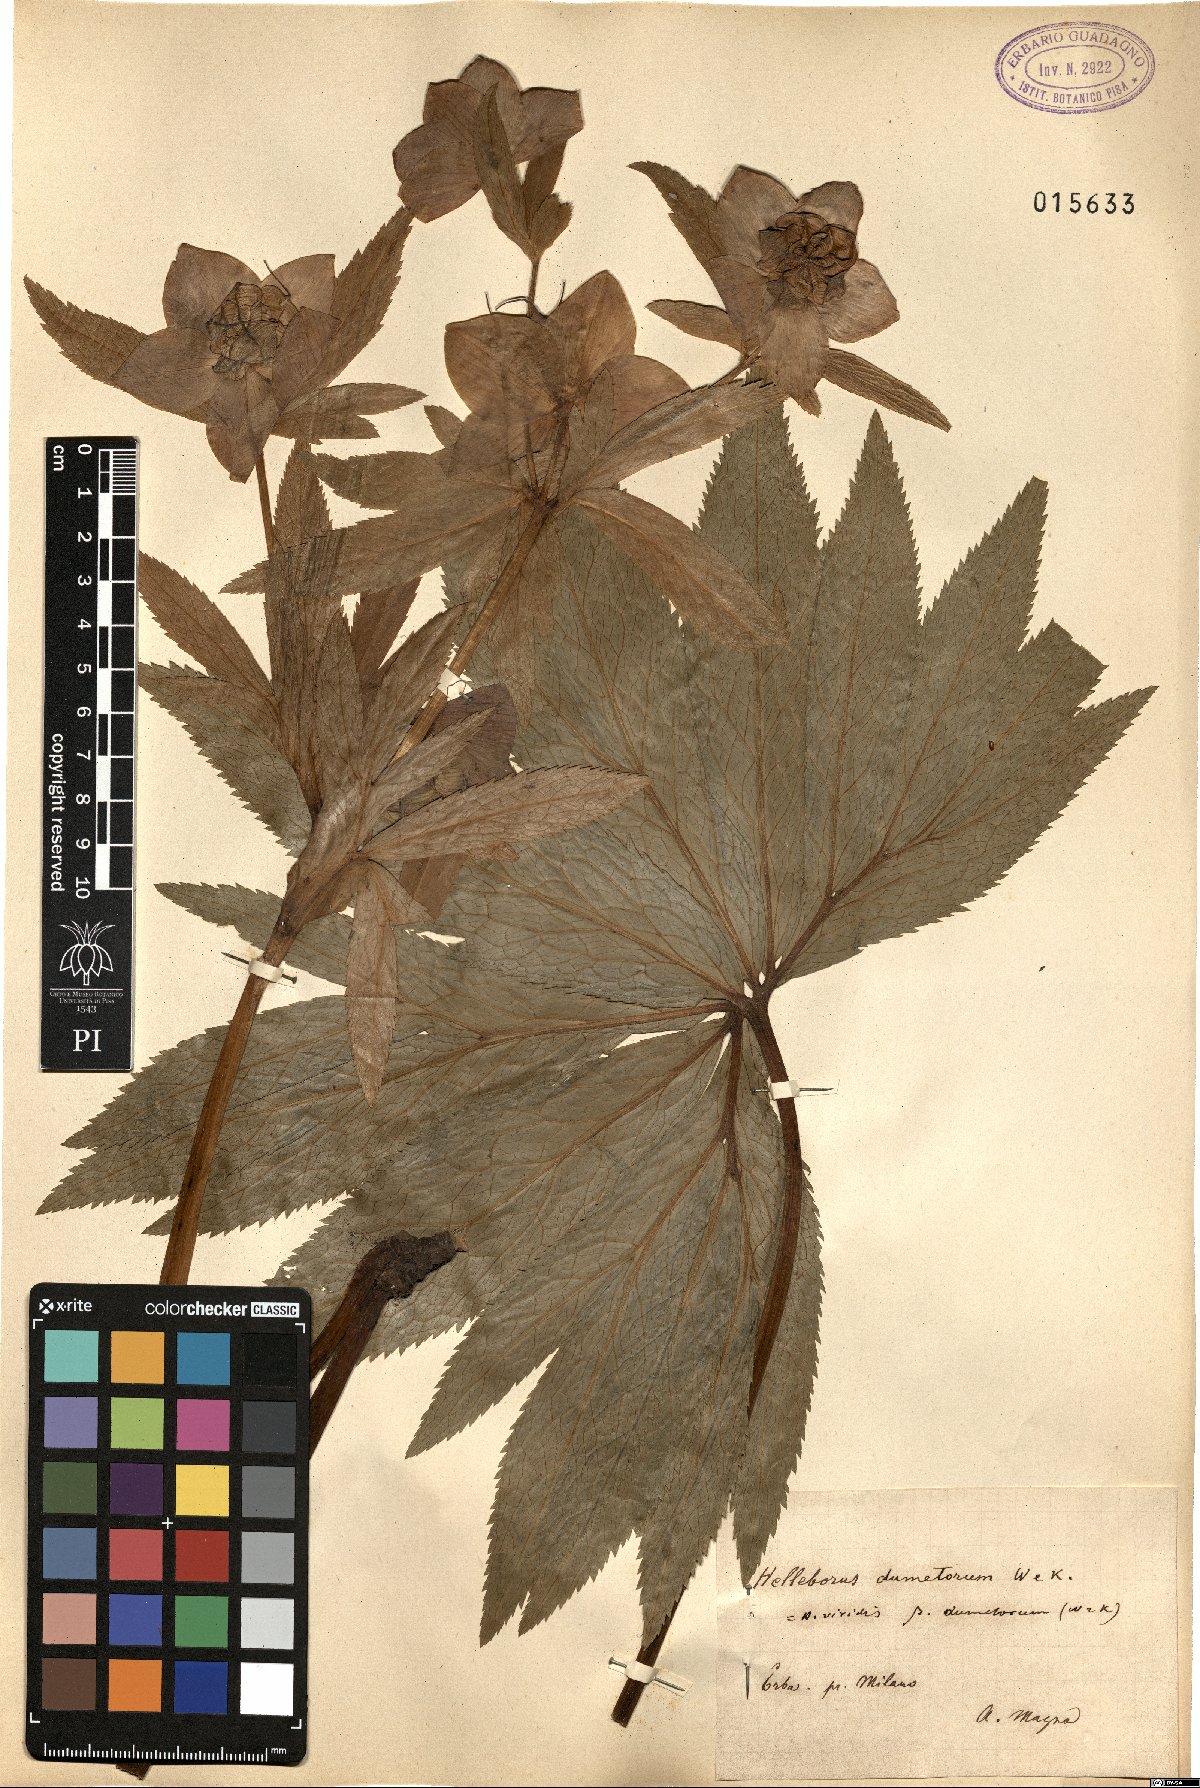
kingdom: Plantae
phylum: Tracheophyta
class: Magnoliopsida
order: Ranunculales
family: Ranunculaceae
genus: Helleborus
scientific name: Helleborus dumetorum
